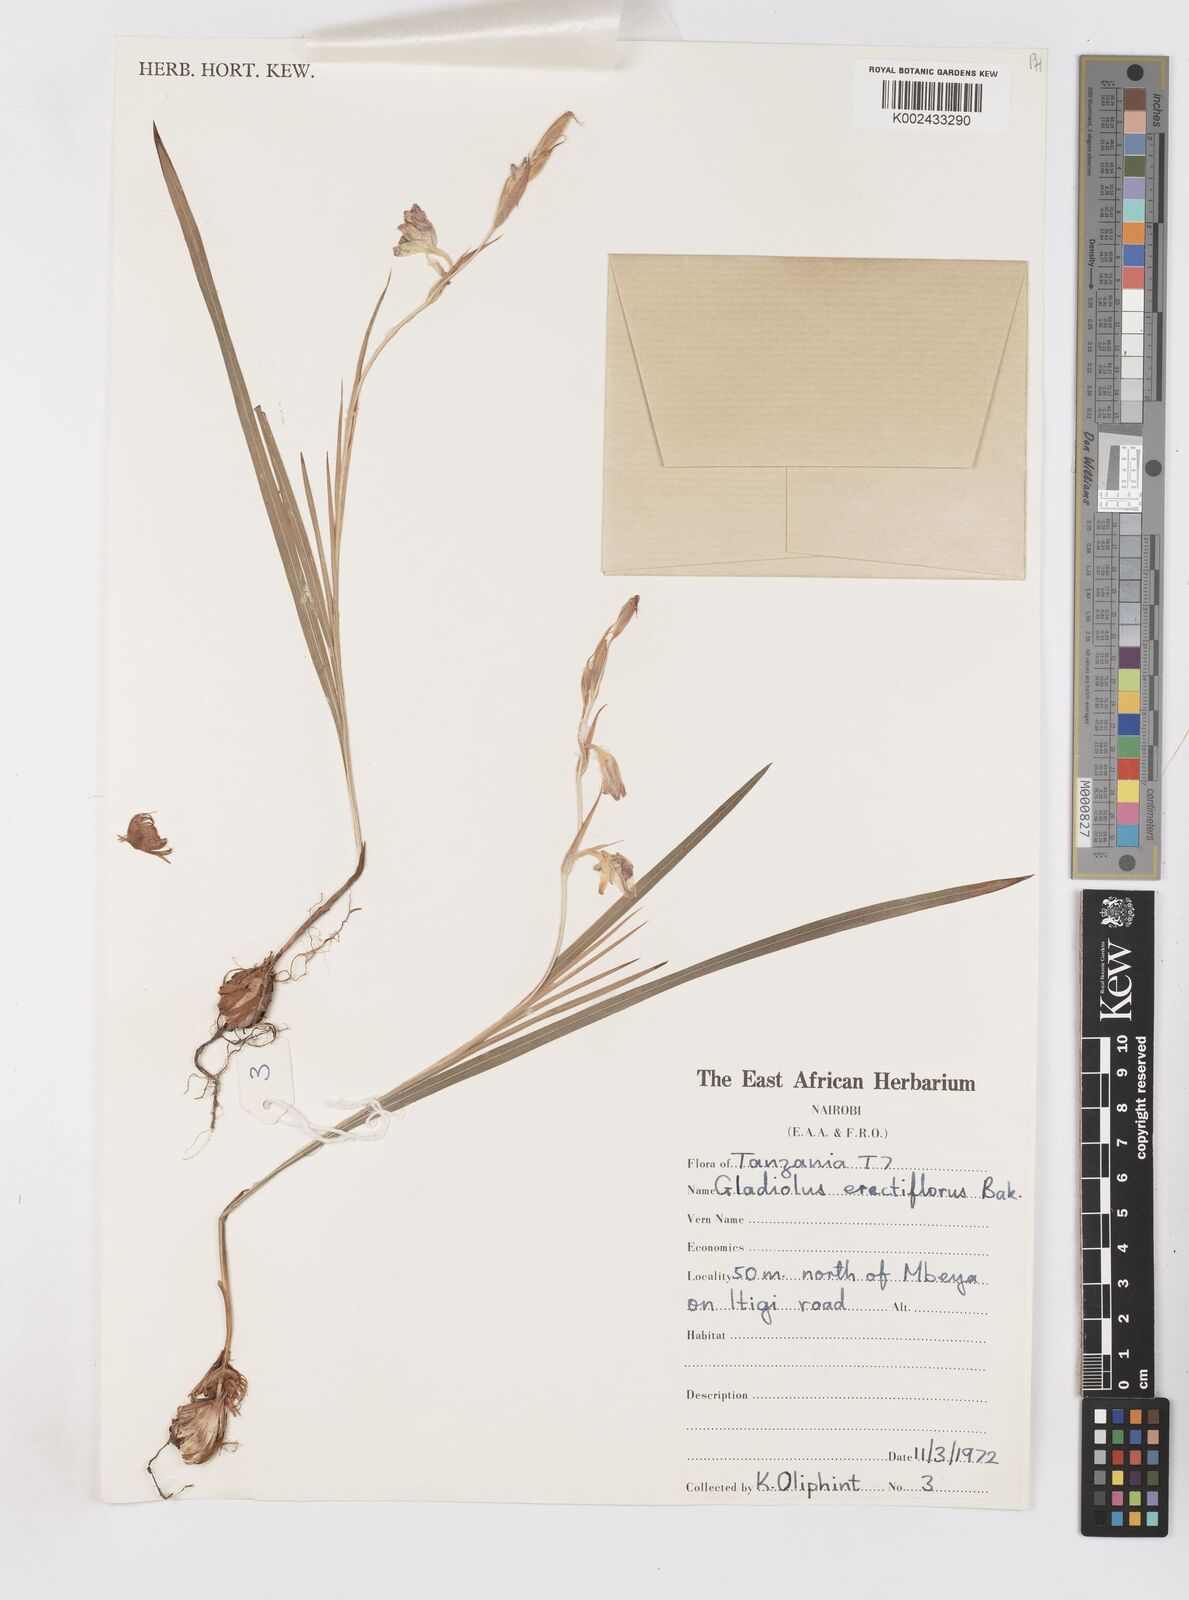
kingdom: Plantae
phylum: Tracheophyta
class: Liliopsida
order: Asparagales
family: Iridaceae
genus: Gladiolus
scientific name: Gladiolus erectiflorus
